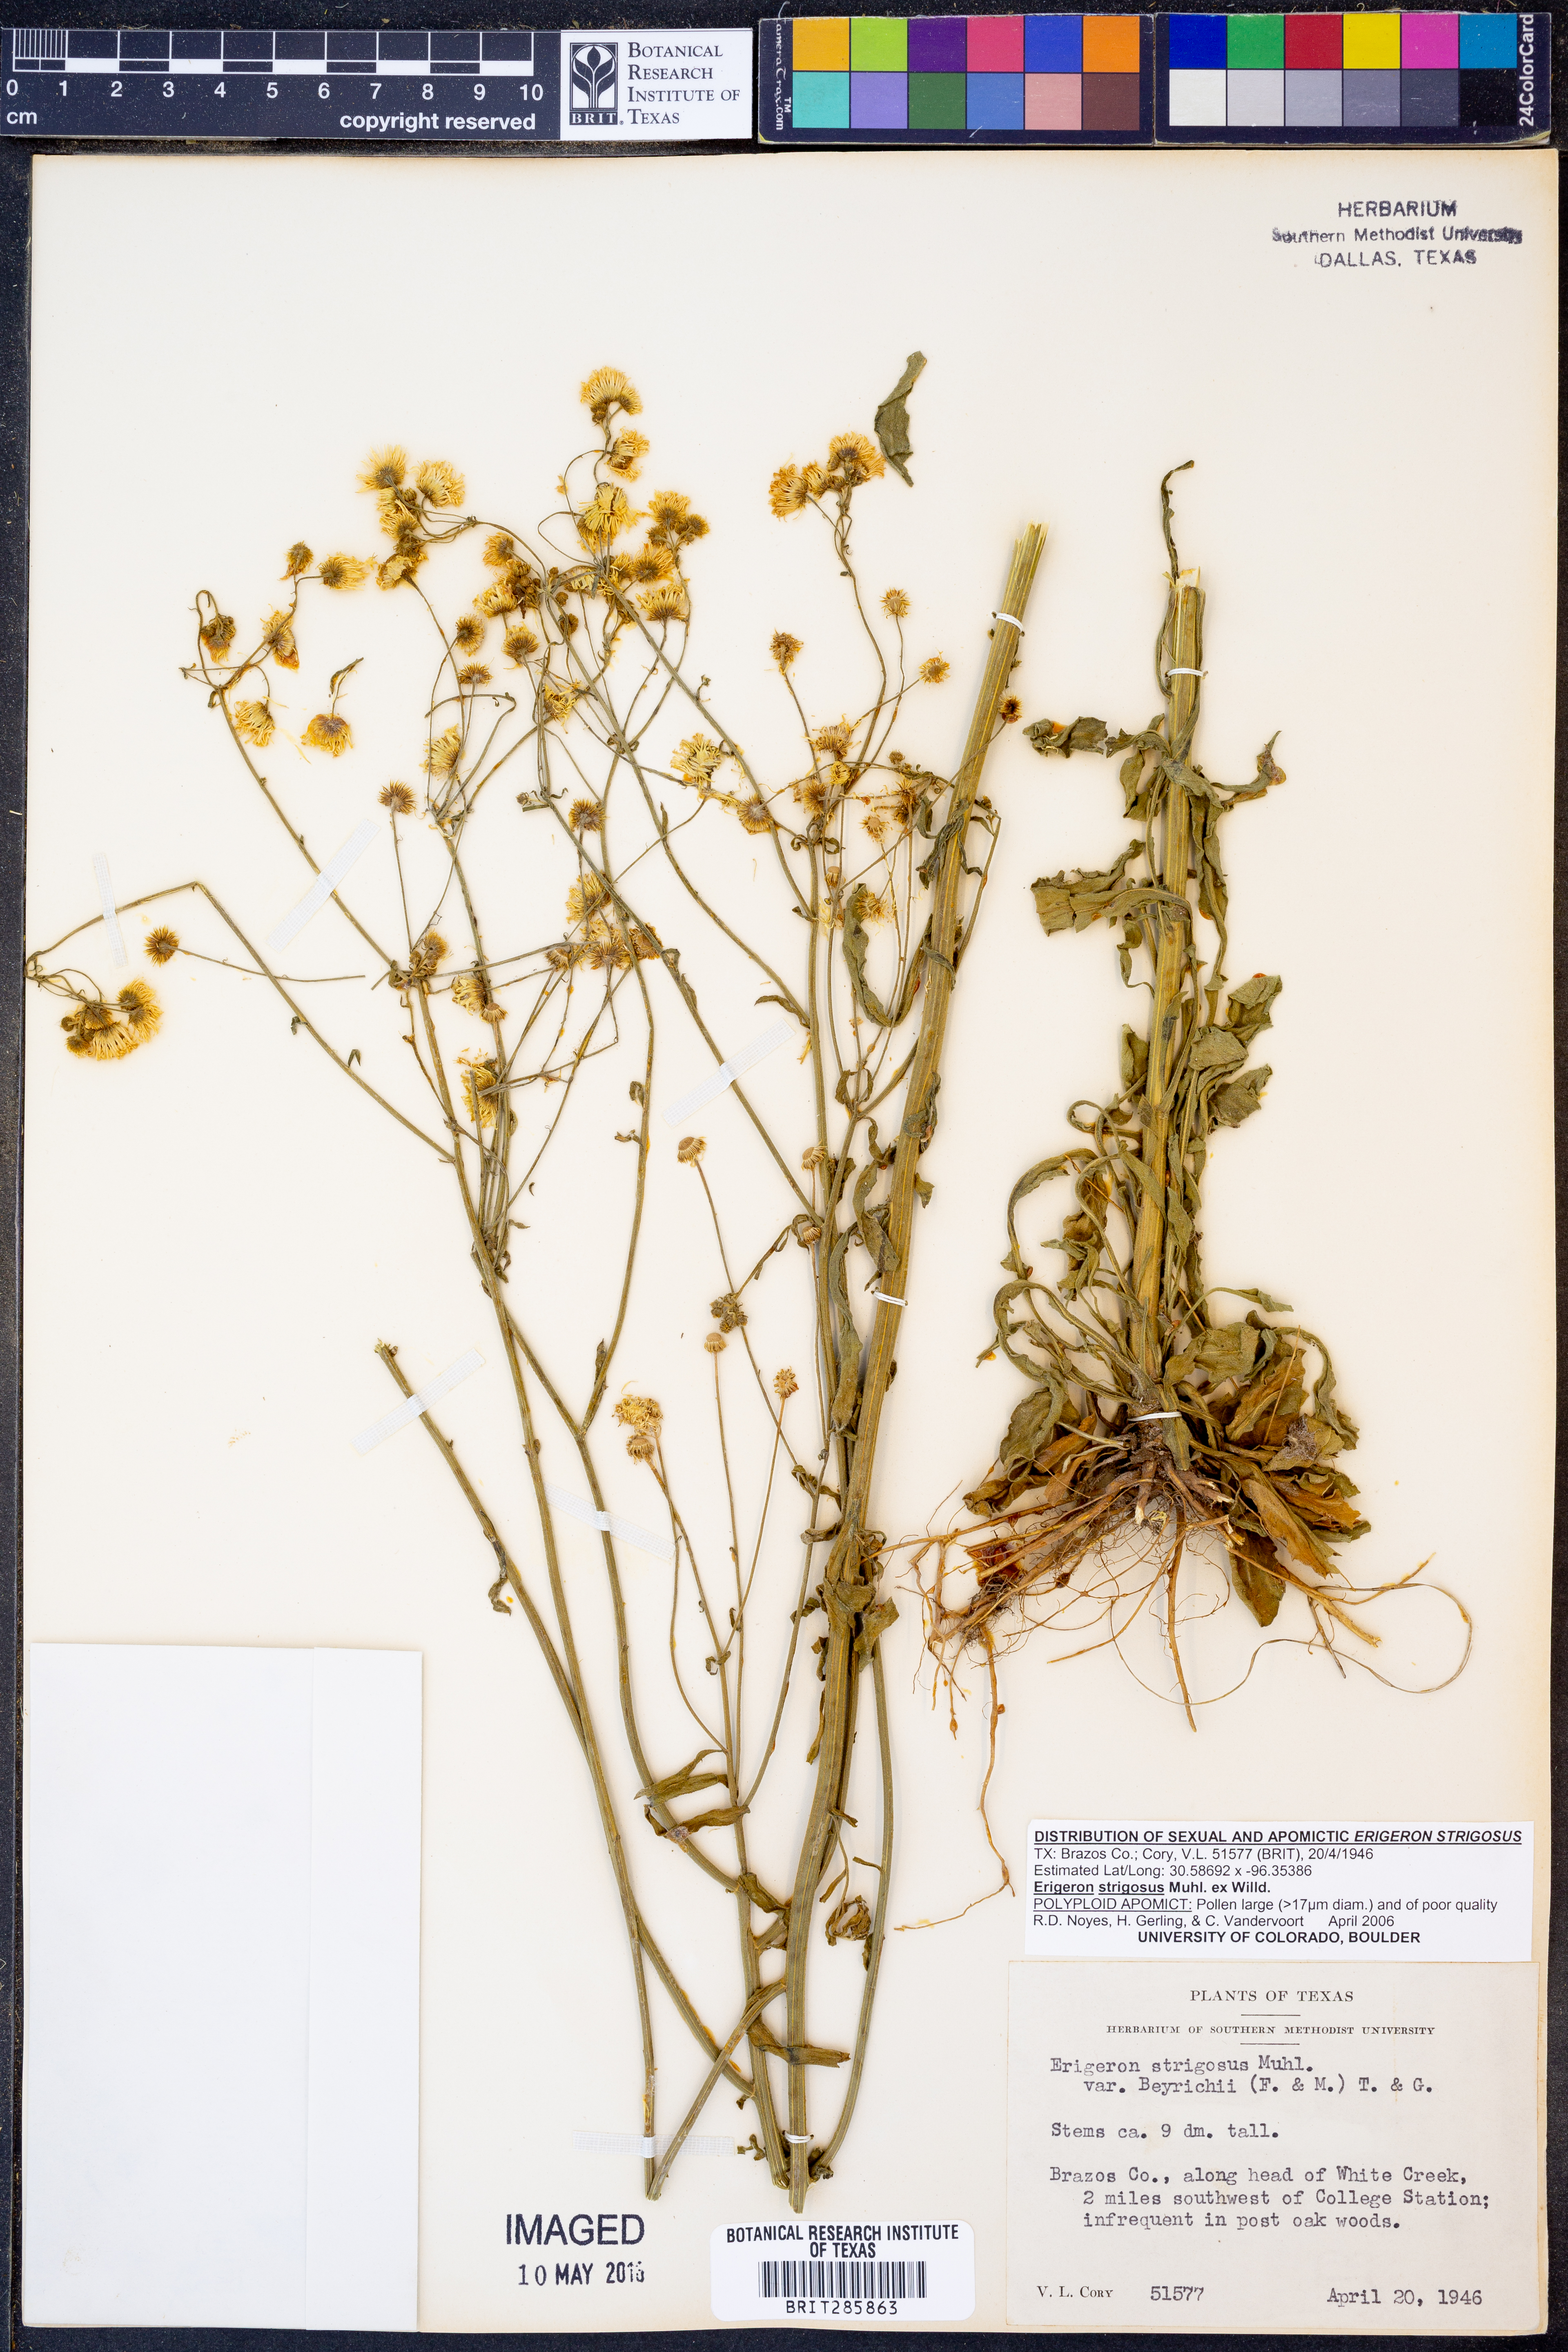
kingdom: Plantae
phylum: Tracheophyta
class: Magnoliopsida
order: Asterales
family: Asteraceae
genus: Erigeron
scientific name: Erigeron strigosus
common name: Common eastern fleabane
